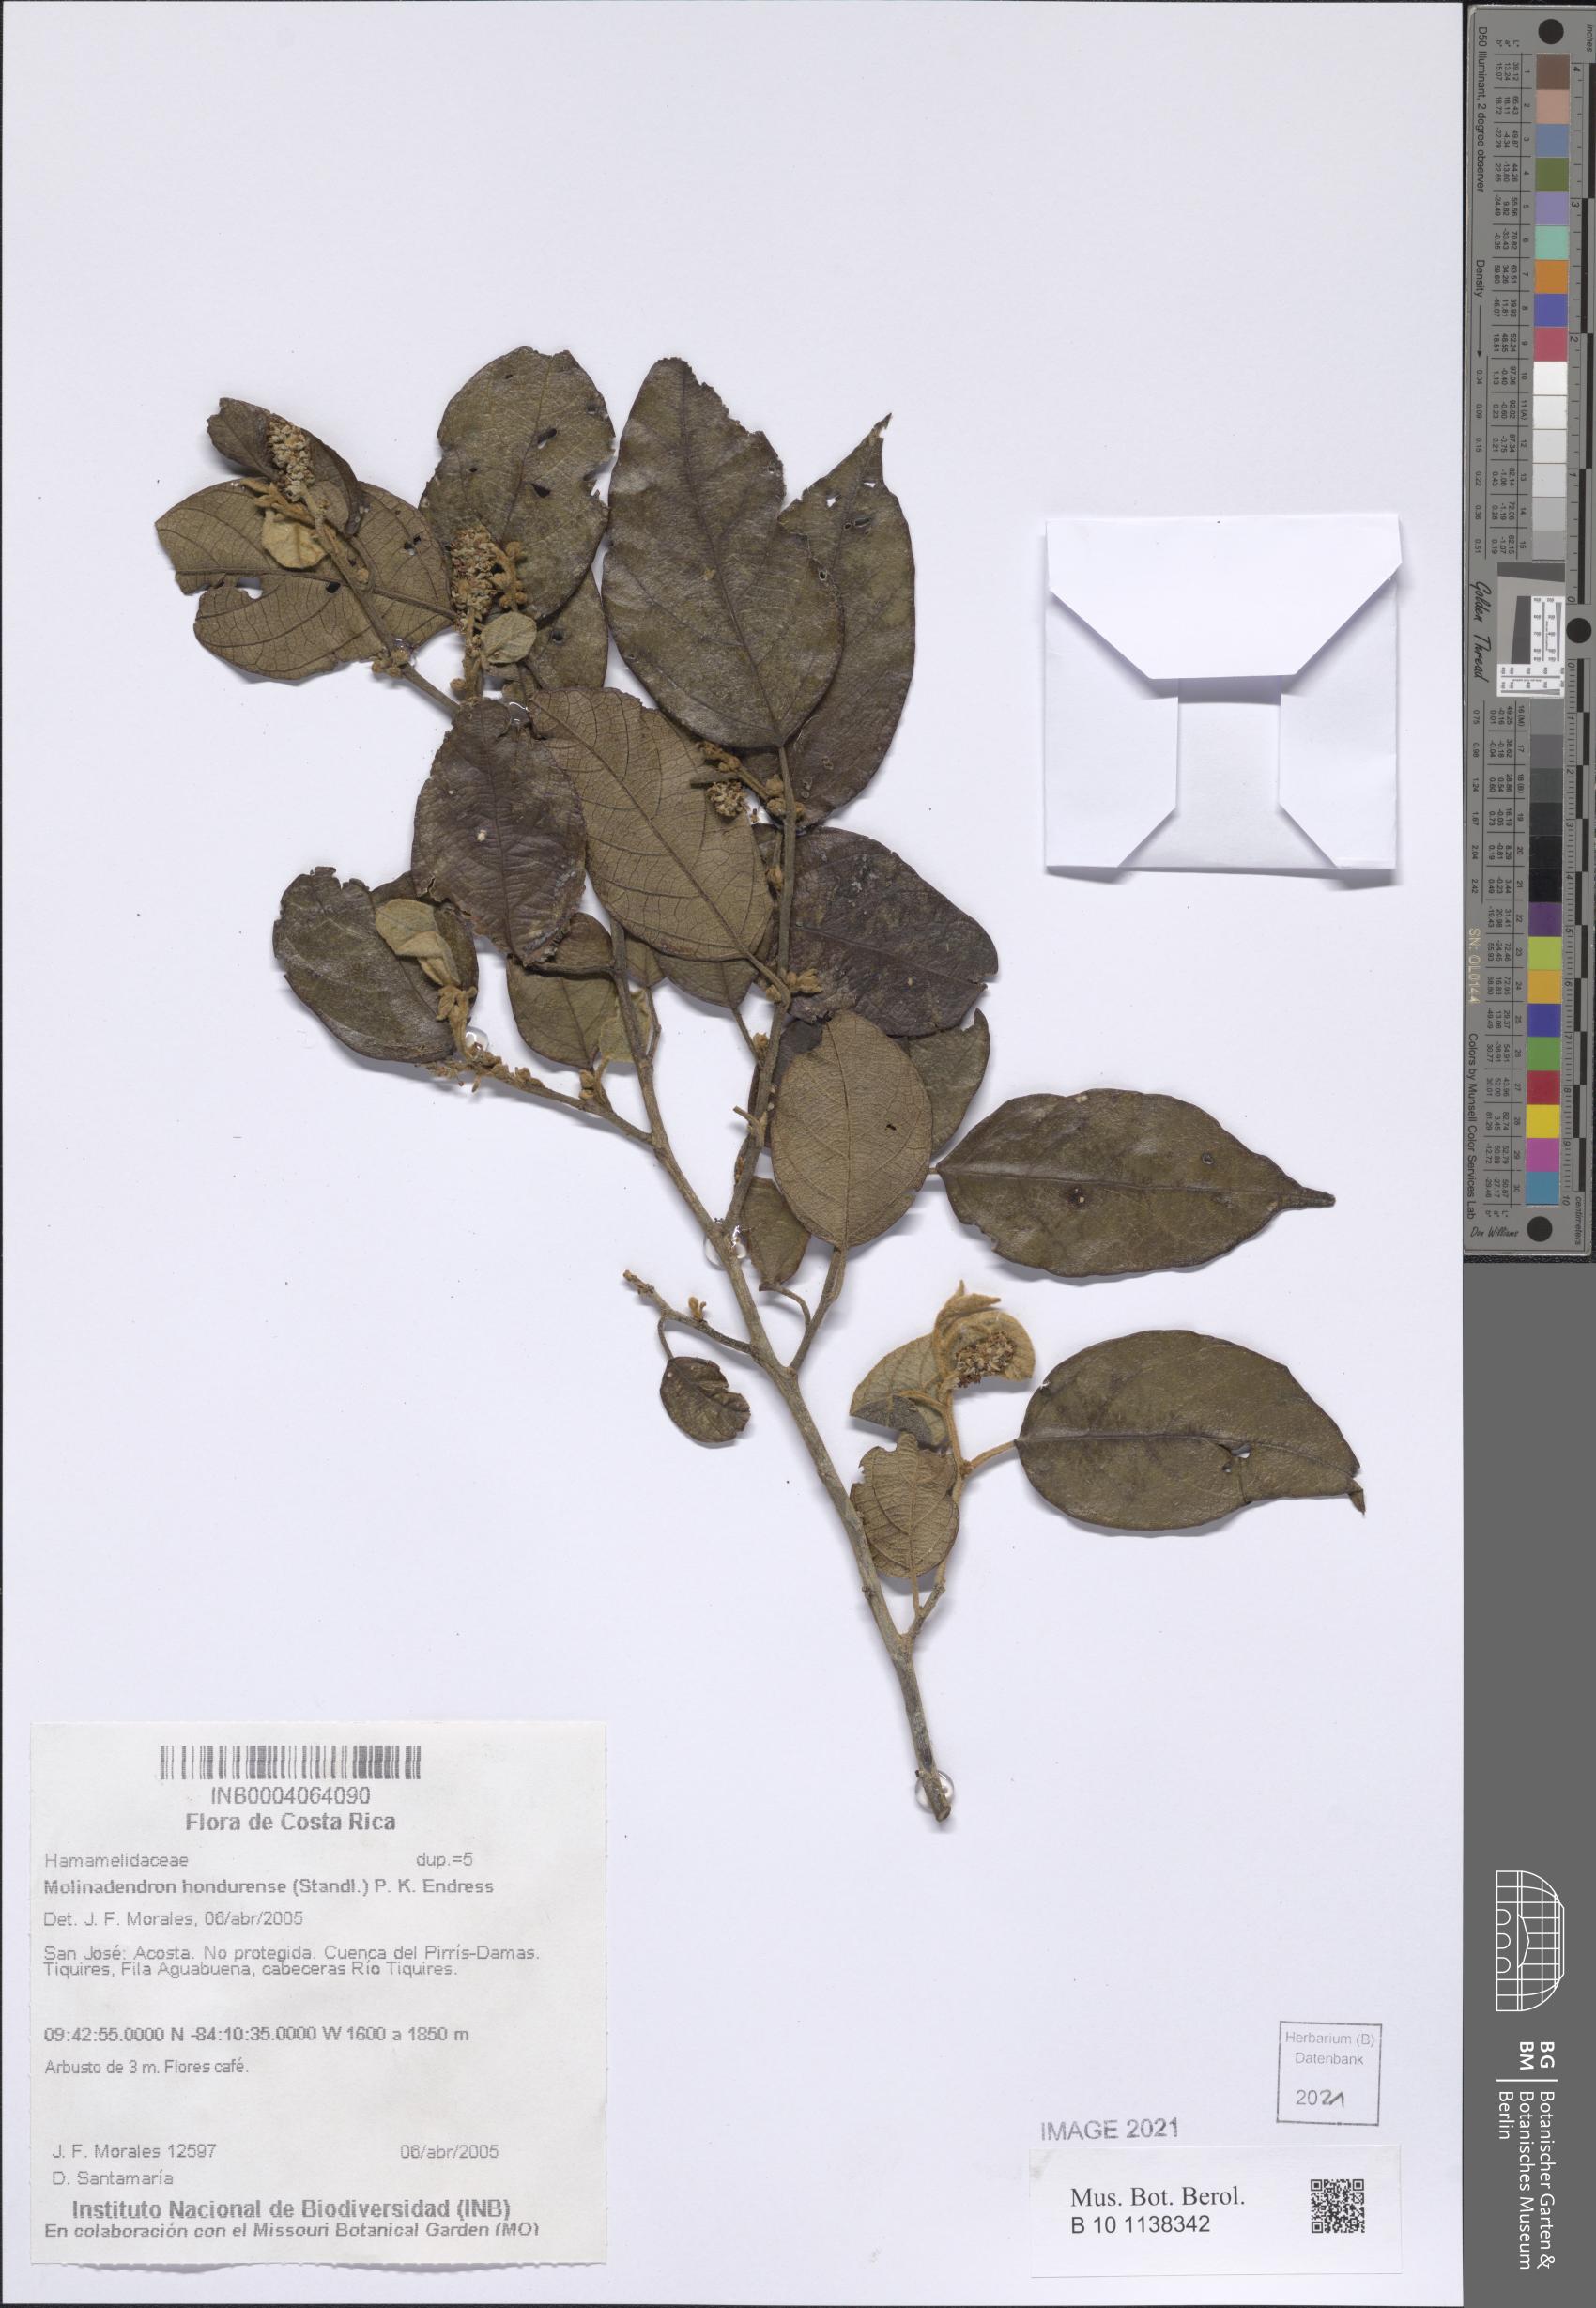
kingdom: Plantae
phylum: Tracheophyta
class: Magnoliopsida
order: Saxifragales
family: Hamamelidaceae
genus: Molinadendron
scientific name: Molinadendron guatemalense
